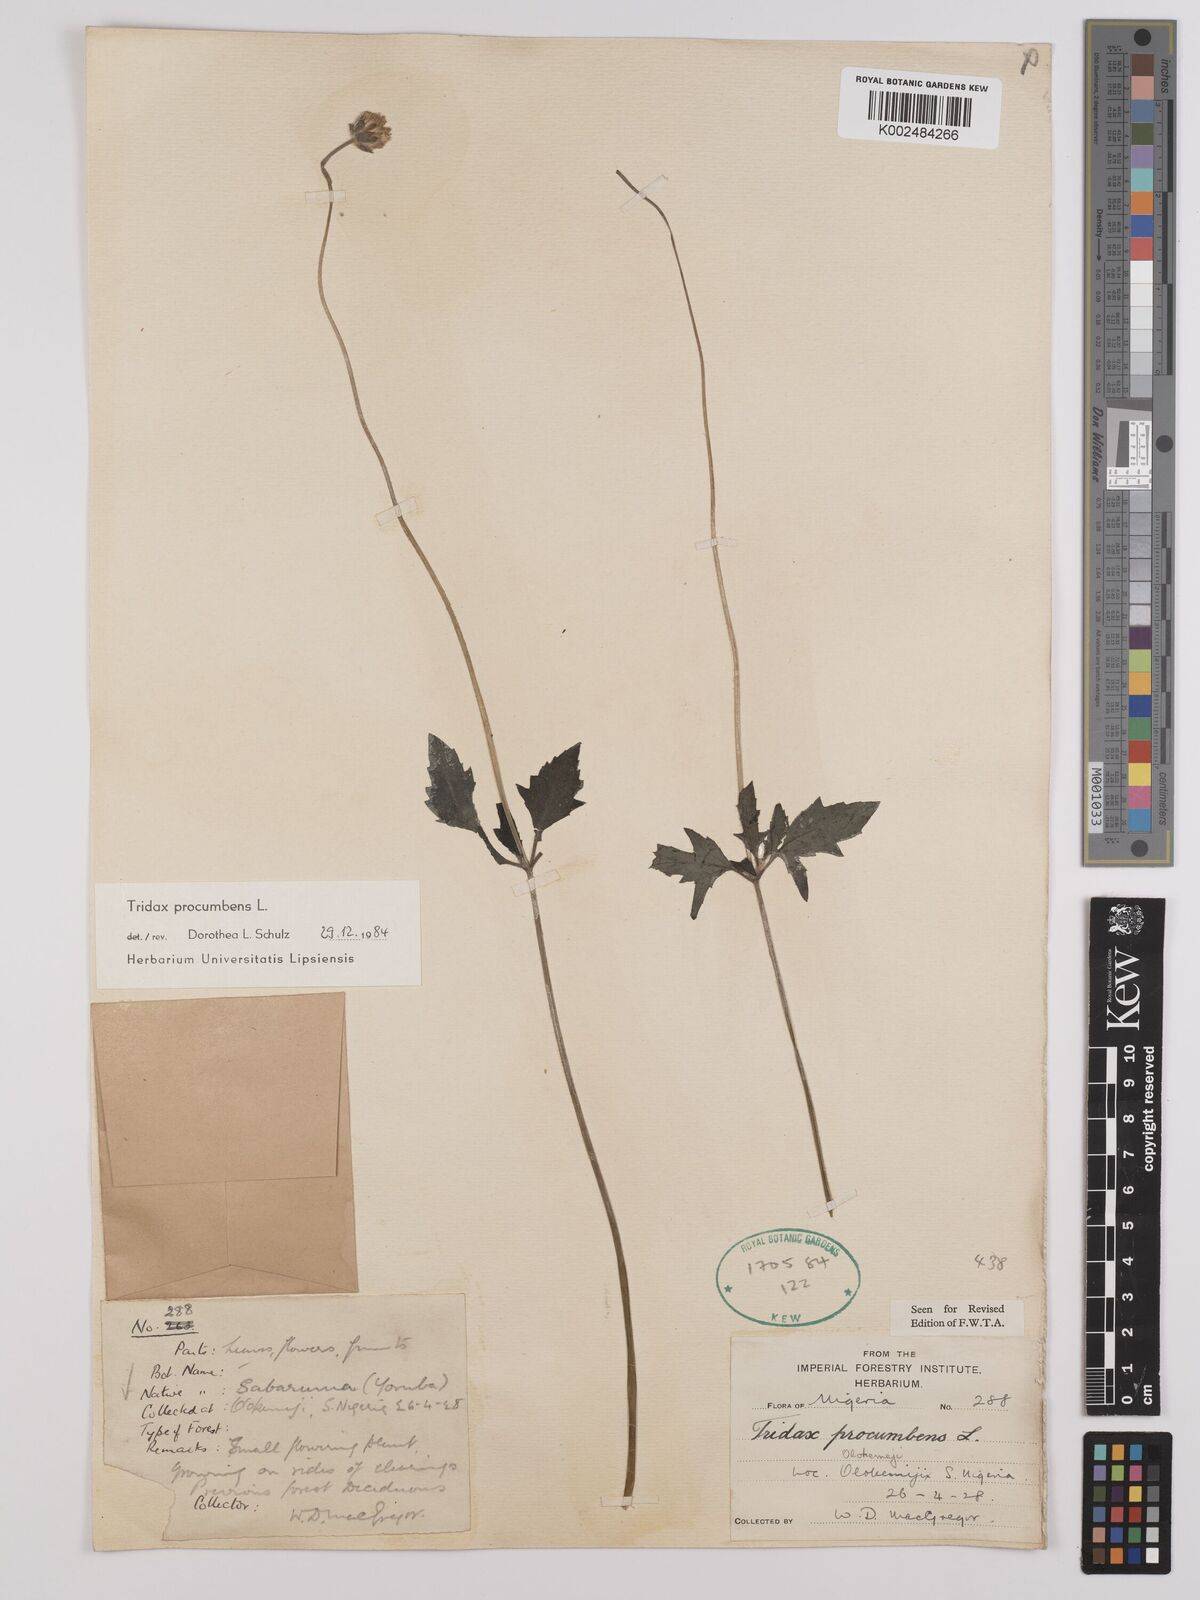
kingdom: Plantae
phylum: Tracheophyta
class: Magnoliopsida
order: Asterales
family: Asteraceae
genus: Tridax
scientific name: Tridax procumbens
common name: Coatbuttons
